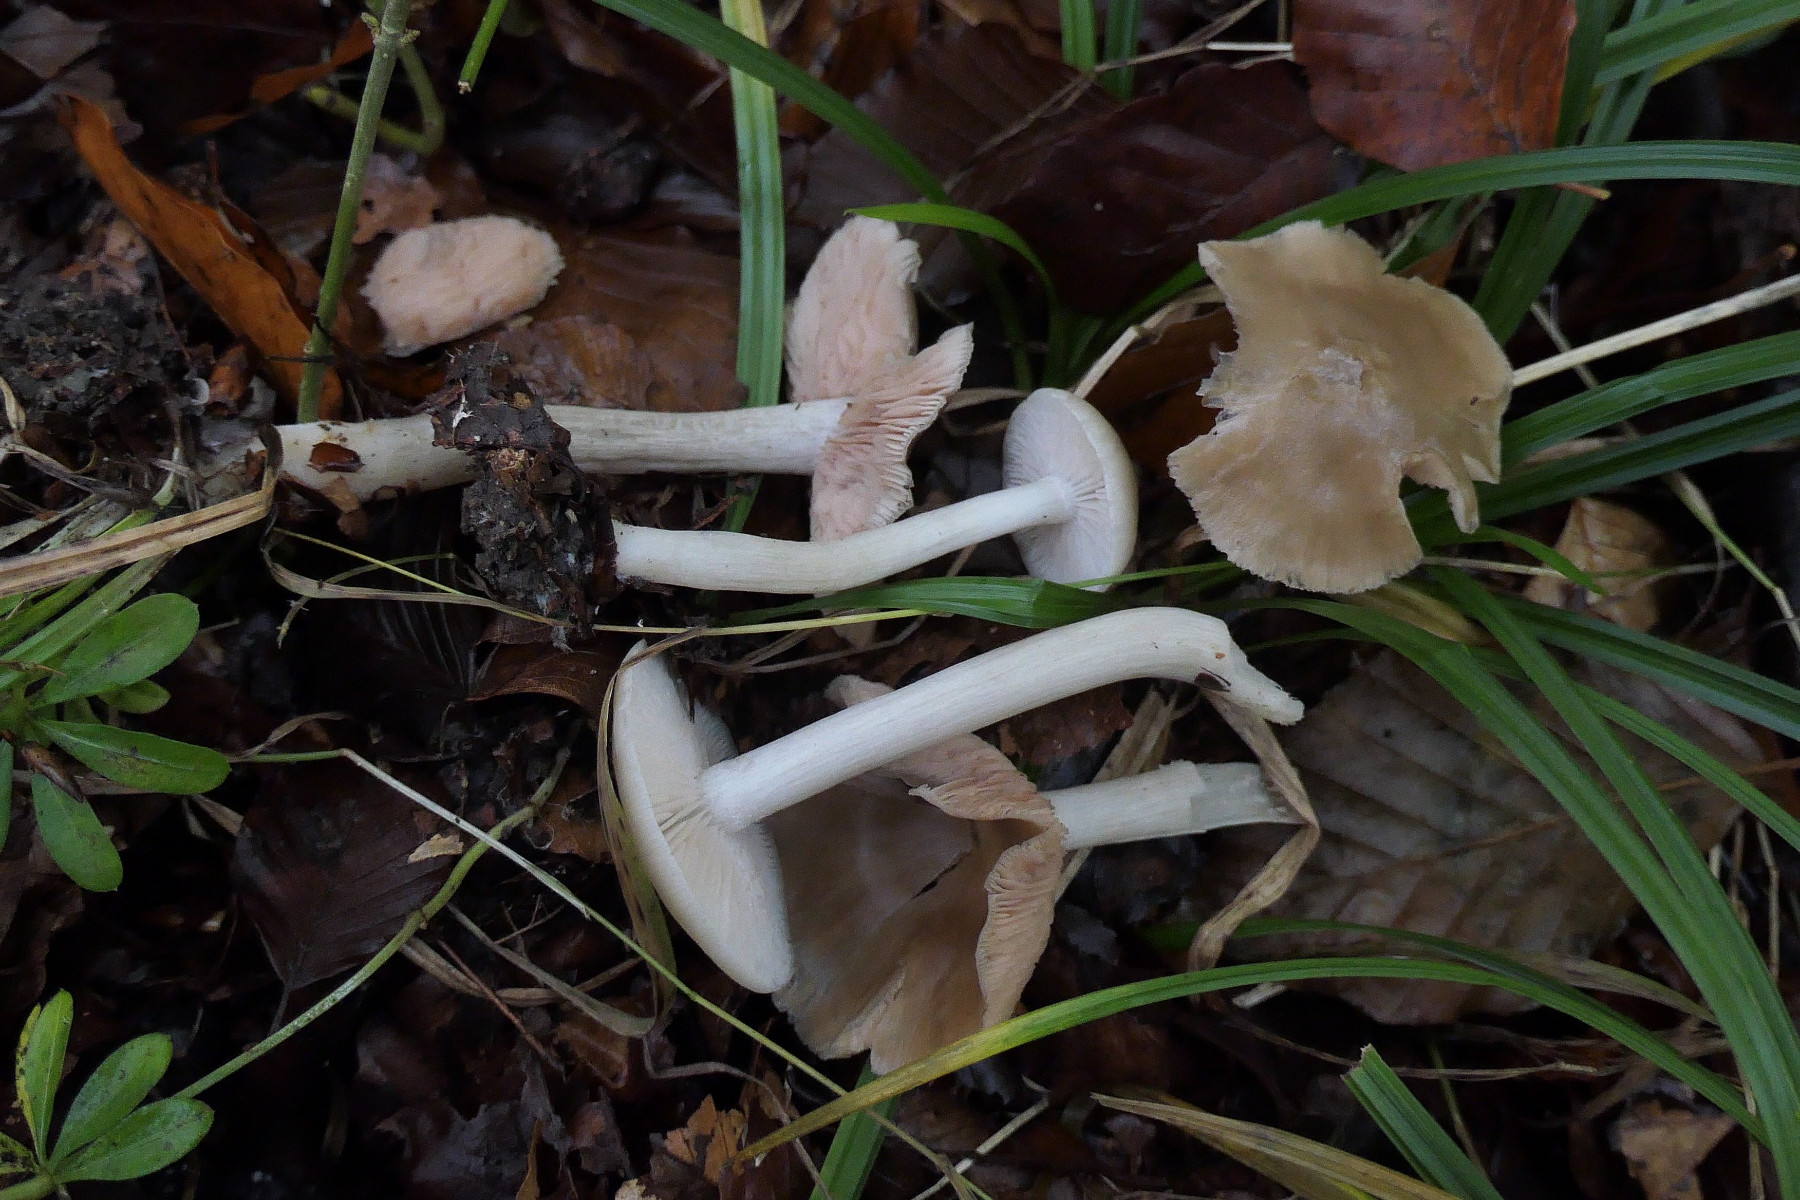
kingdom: Fungi
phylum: Basidiomycota
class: Agaricomycetes
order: Agaricales
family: Entolomataceae
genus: Entoloma
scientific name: Entoloma rhodopolium
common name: skov-rødblad
